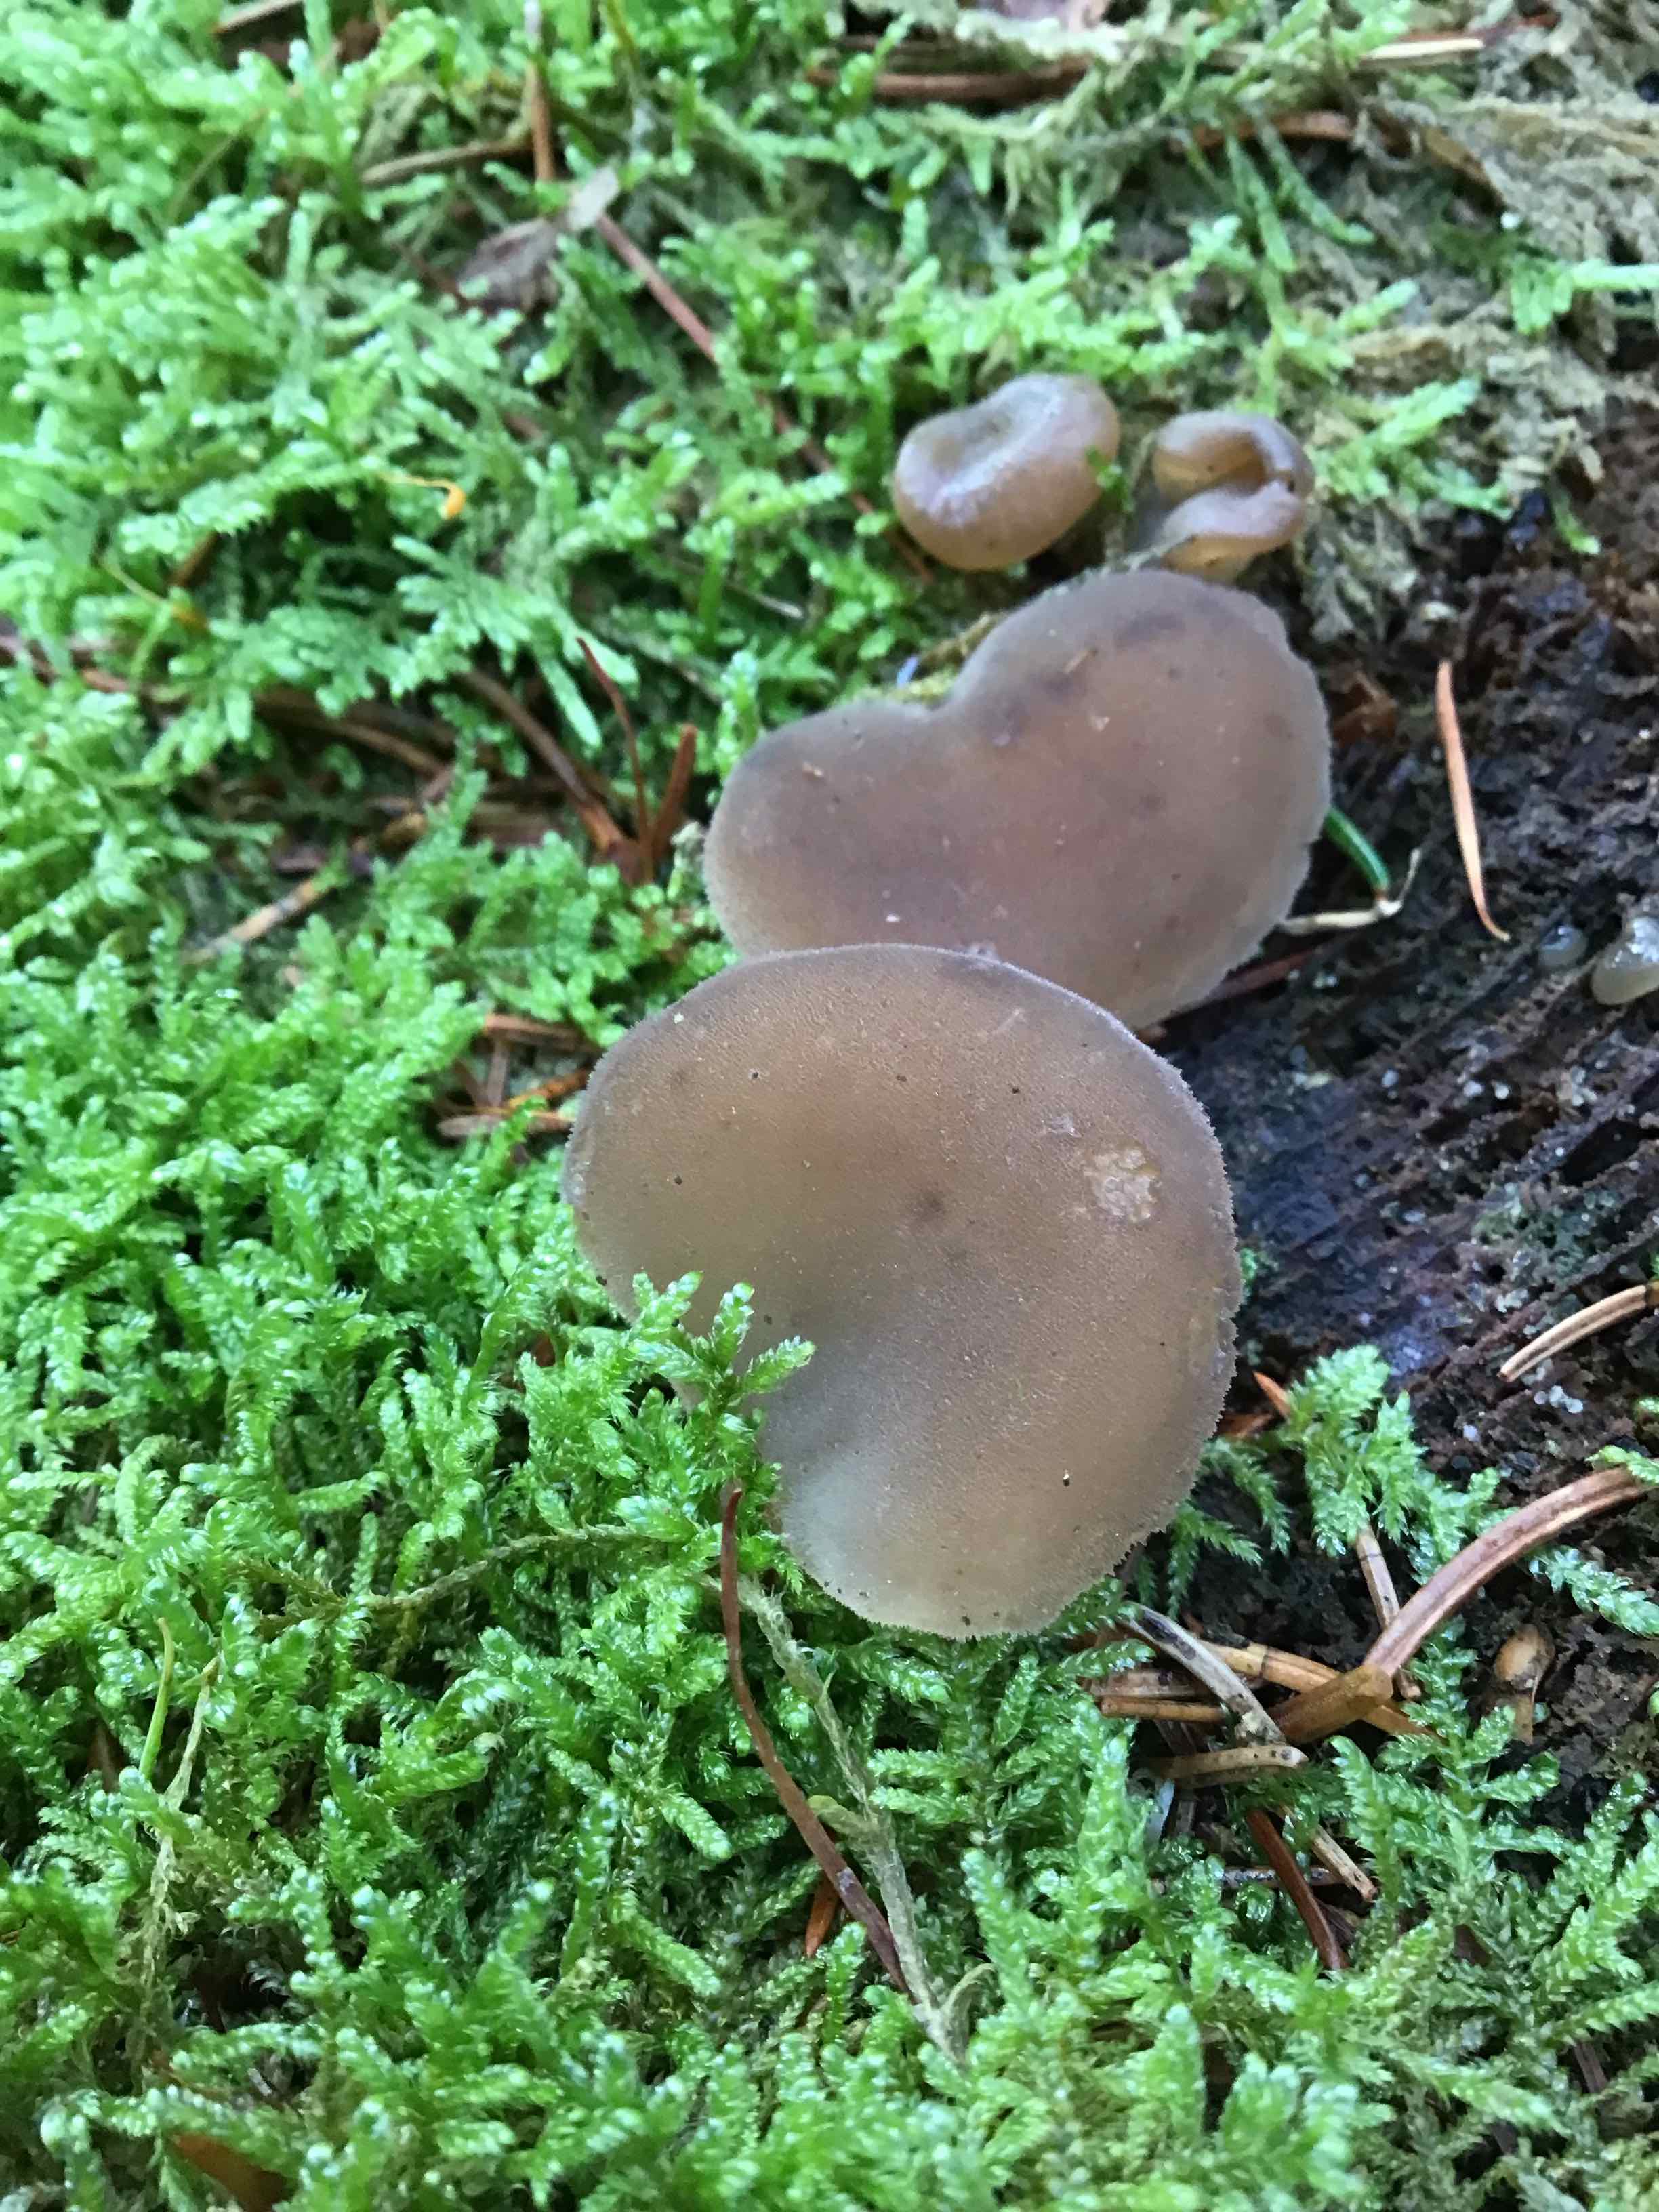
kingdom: Fungi
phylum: Basidiomycota
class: Agaricomycetes
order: Auriculariales
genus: Pseudohydnum
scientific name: Pseudohydnum gelatinosum
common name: bævretand
